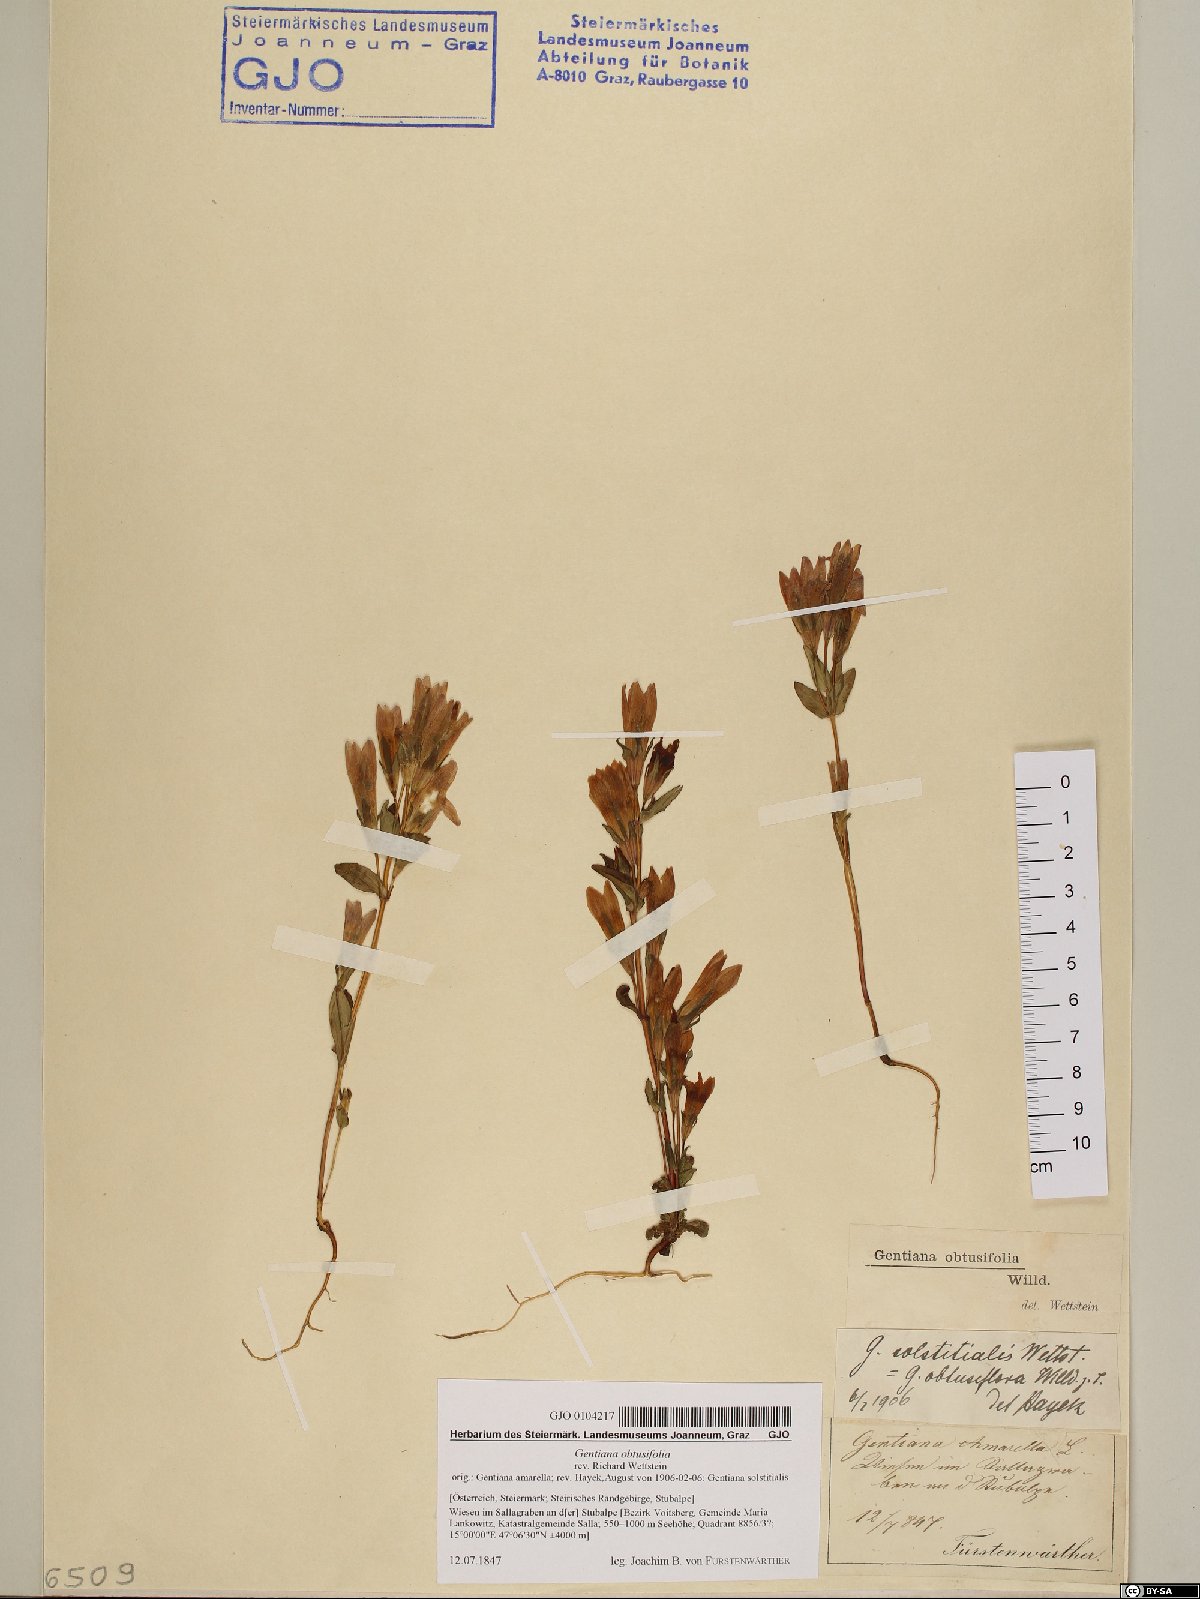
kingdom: Plantae
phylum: Tracheophyta
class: Magnoliopsida
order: Gentianales
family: Gentianaceae
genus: Gentianella
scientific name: Gentianella obtusifolia
